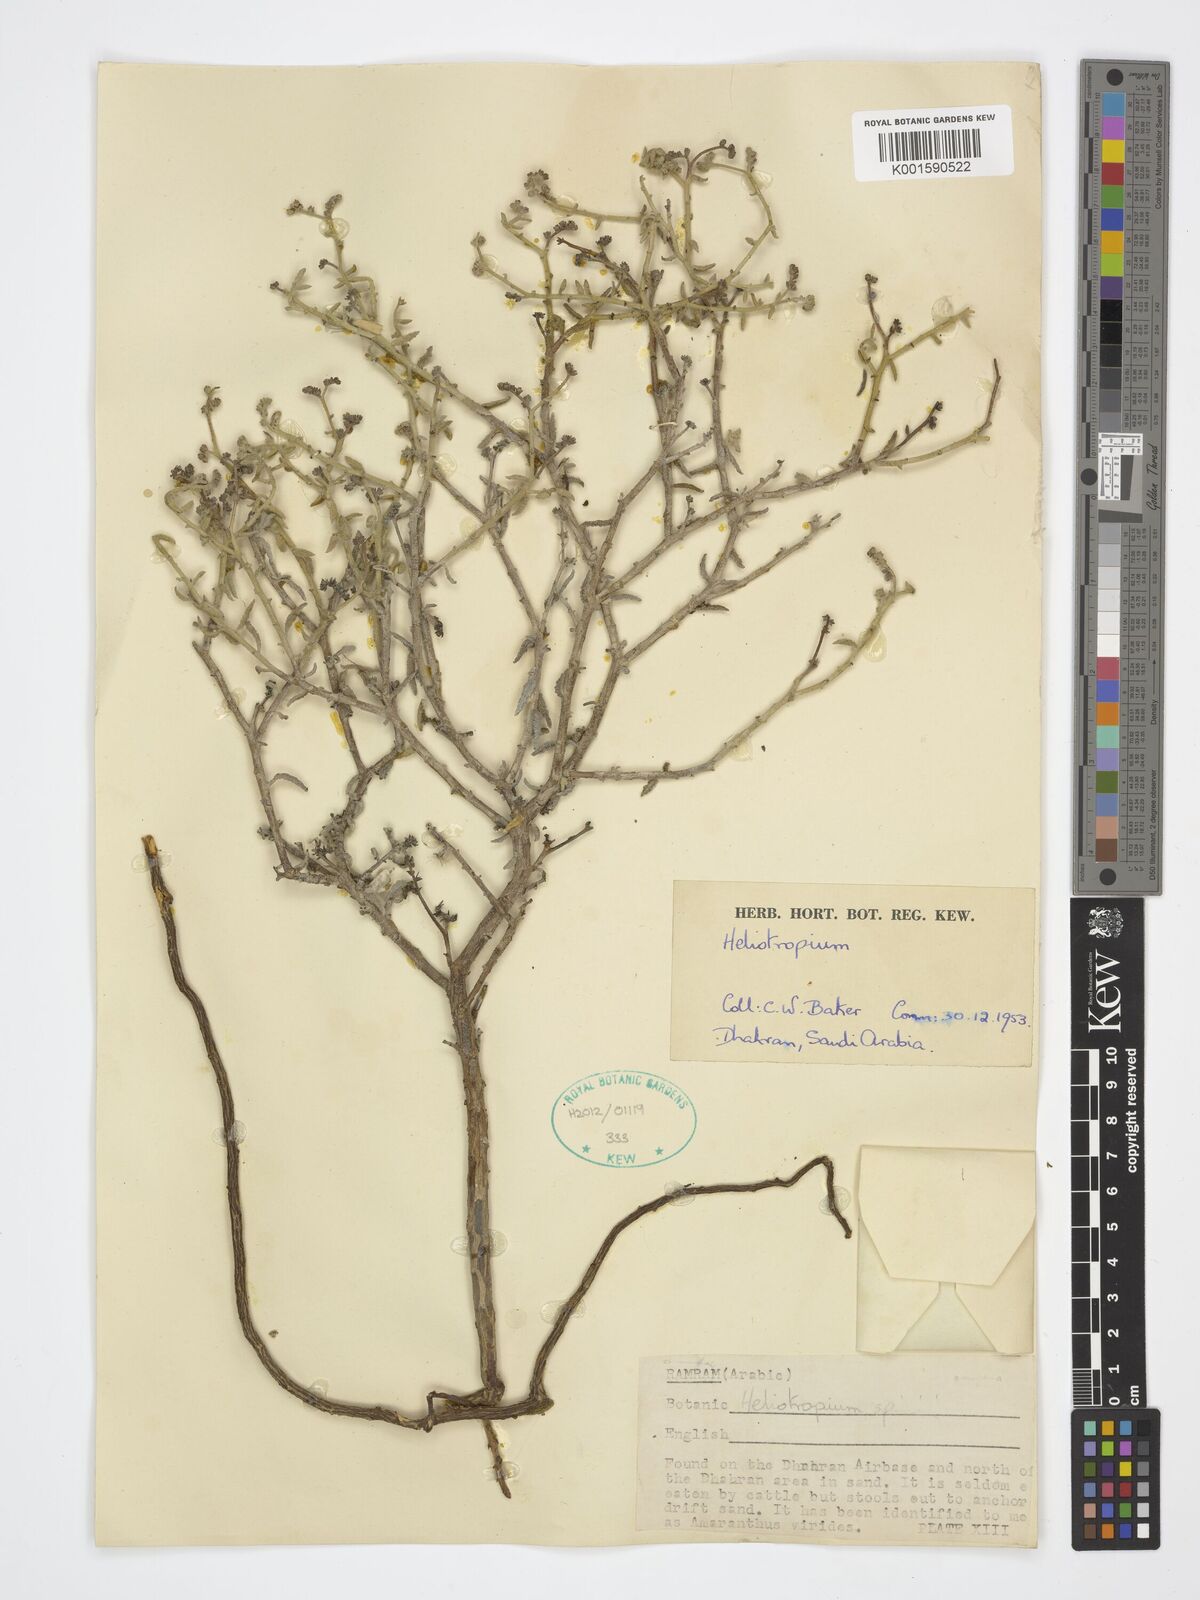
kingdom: Plantae
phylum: Tracheophyta
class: Magnoliopsida
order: Boraginales
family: Heliotropiaceae
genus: Heliotropium
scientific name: Heliotropium
